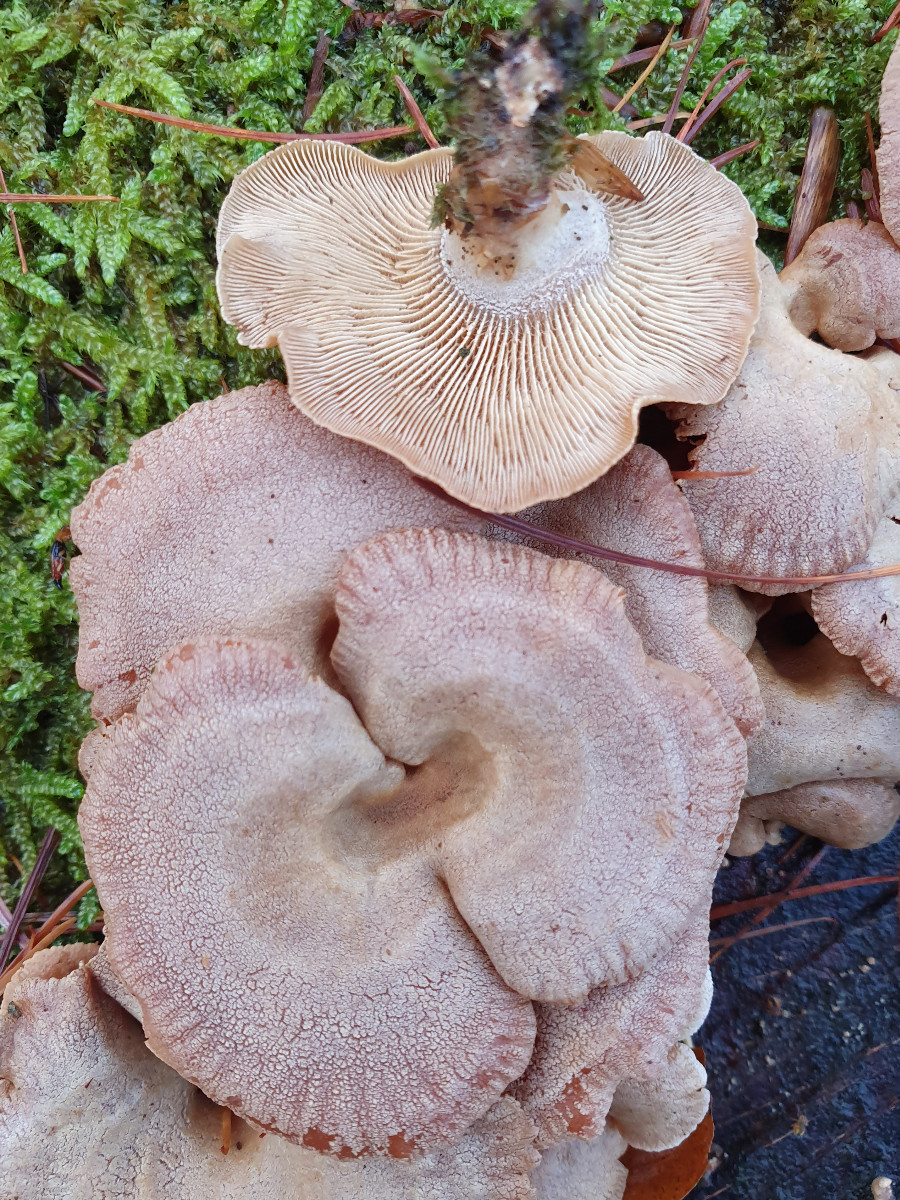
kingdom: Fungi
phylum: Basidiomycota
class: Agaricomycetes
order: Agaricales
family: Mycenaceae
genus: Panellus
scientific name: Panellus stipticus
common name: kliddet epaulethat
